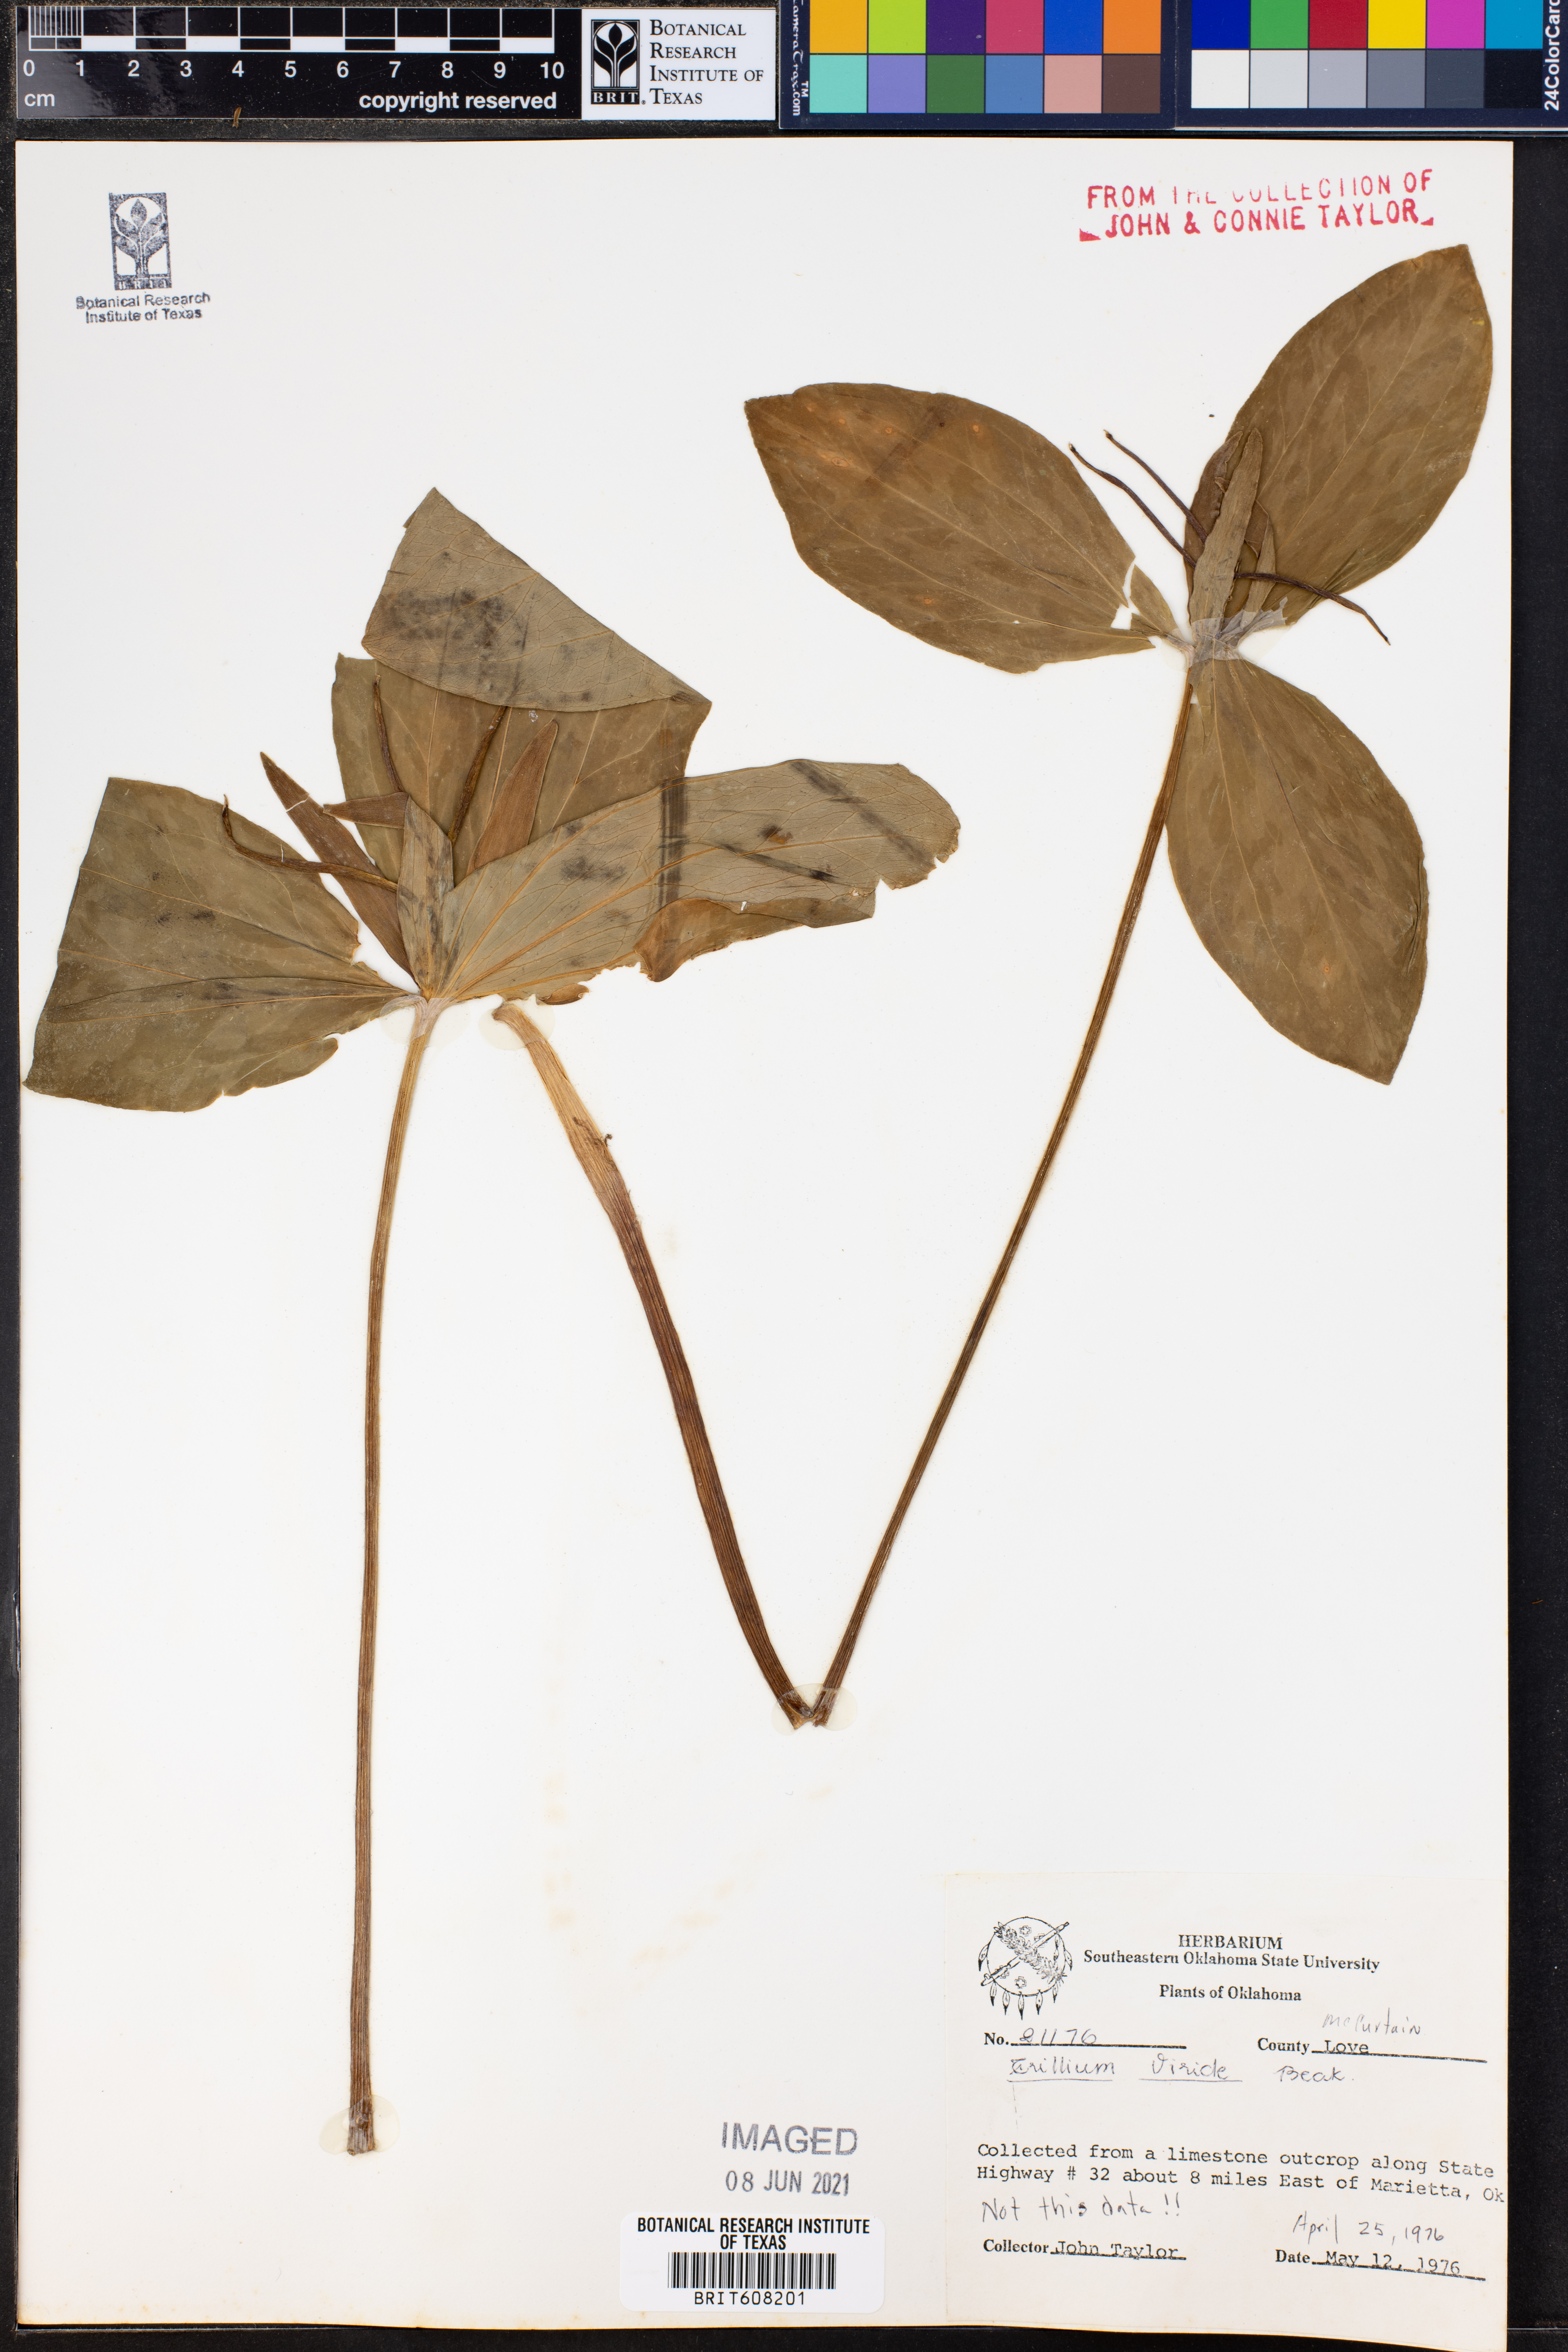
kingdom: Plantae
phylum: Tracheophyta
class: Liliopsida
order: Liliales
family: Melanthiaceae
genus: Trillium
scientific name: Trillium viride
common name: Green trillium
